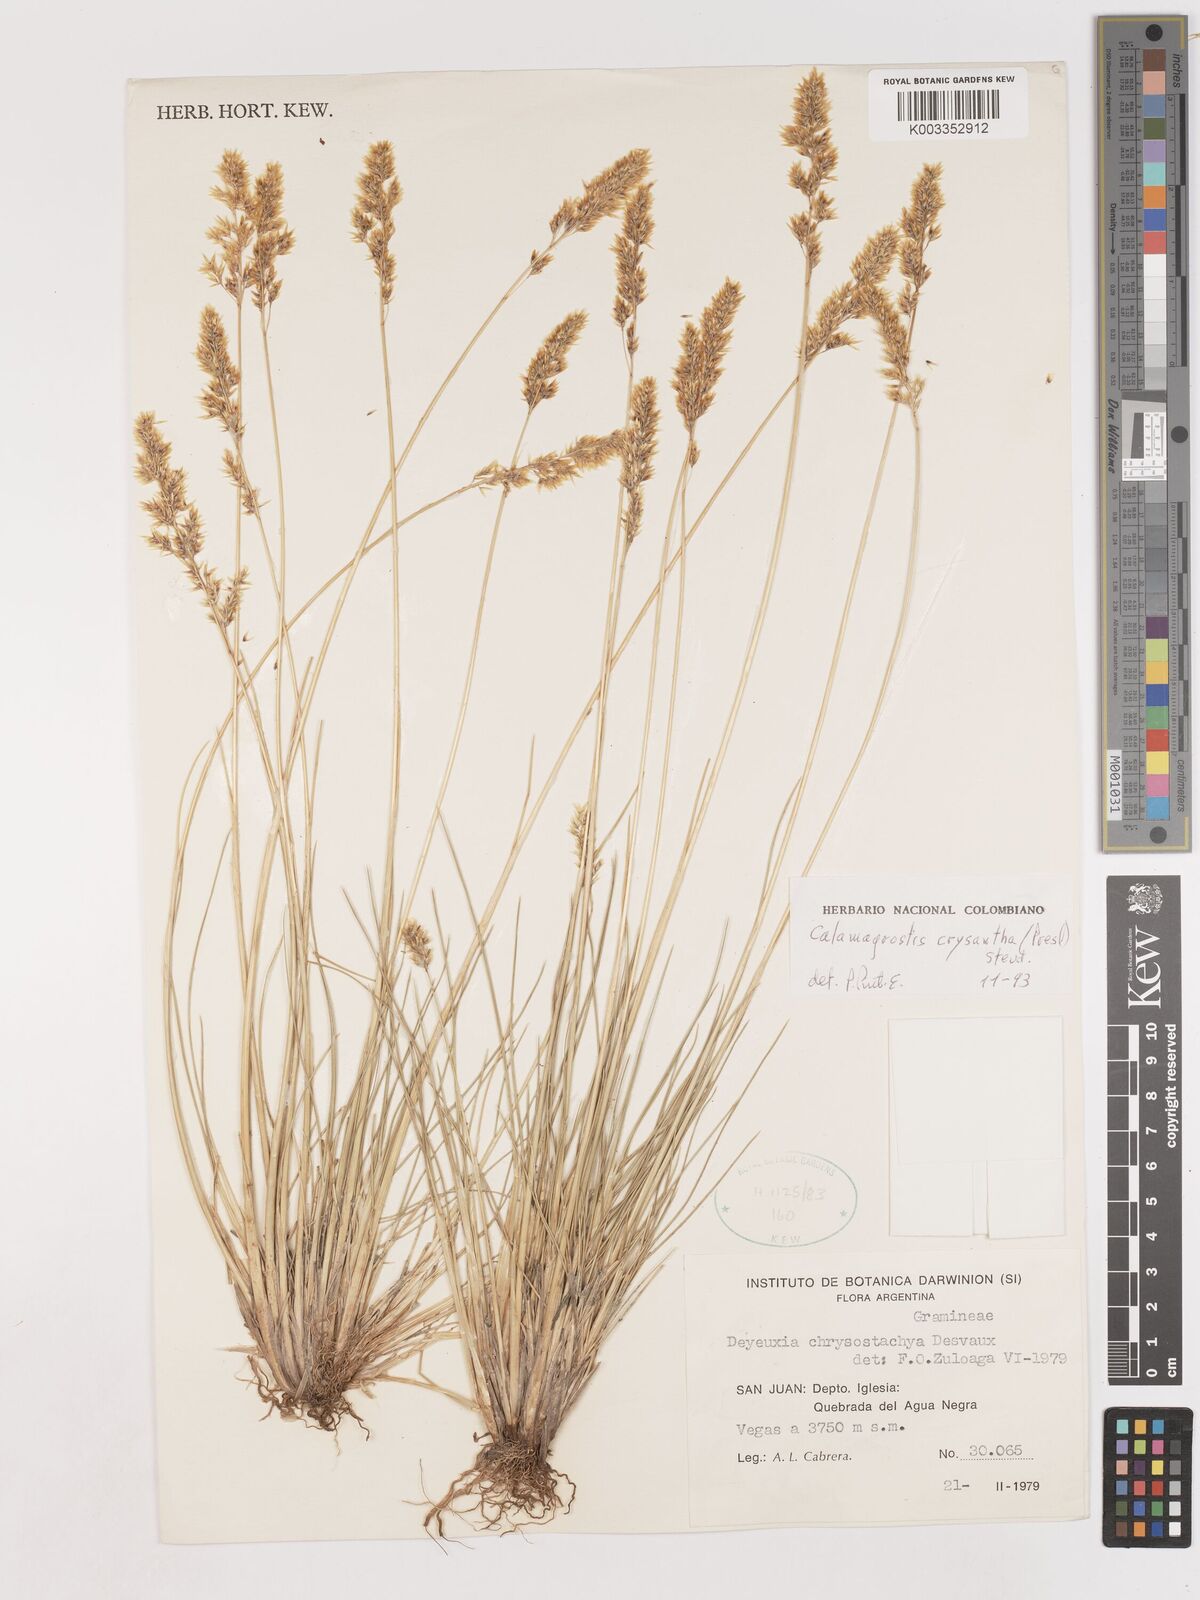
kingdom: Plantae
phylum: Tracheophyta
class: Liliopsida
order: Poales
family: Poaceae
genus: Deschampsia
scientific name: Deschampsia chrysantha
